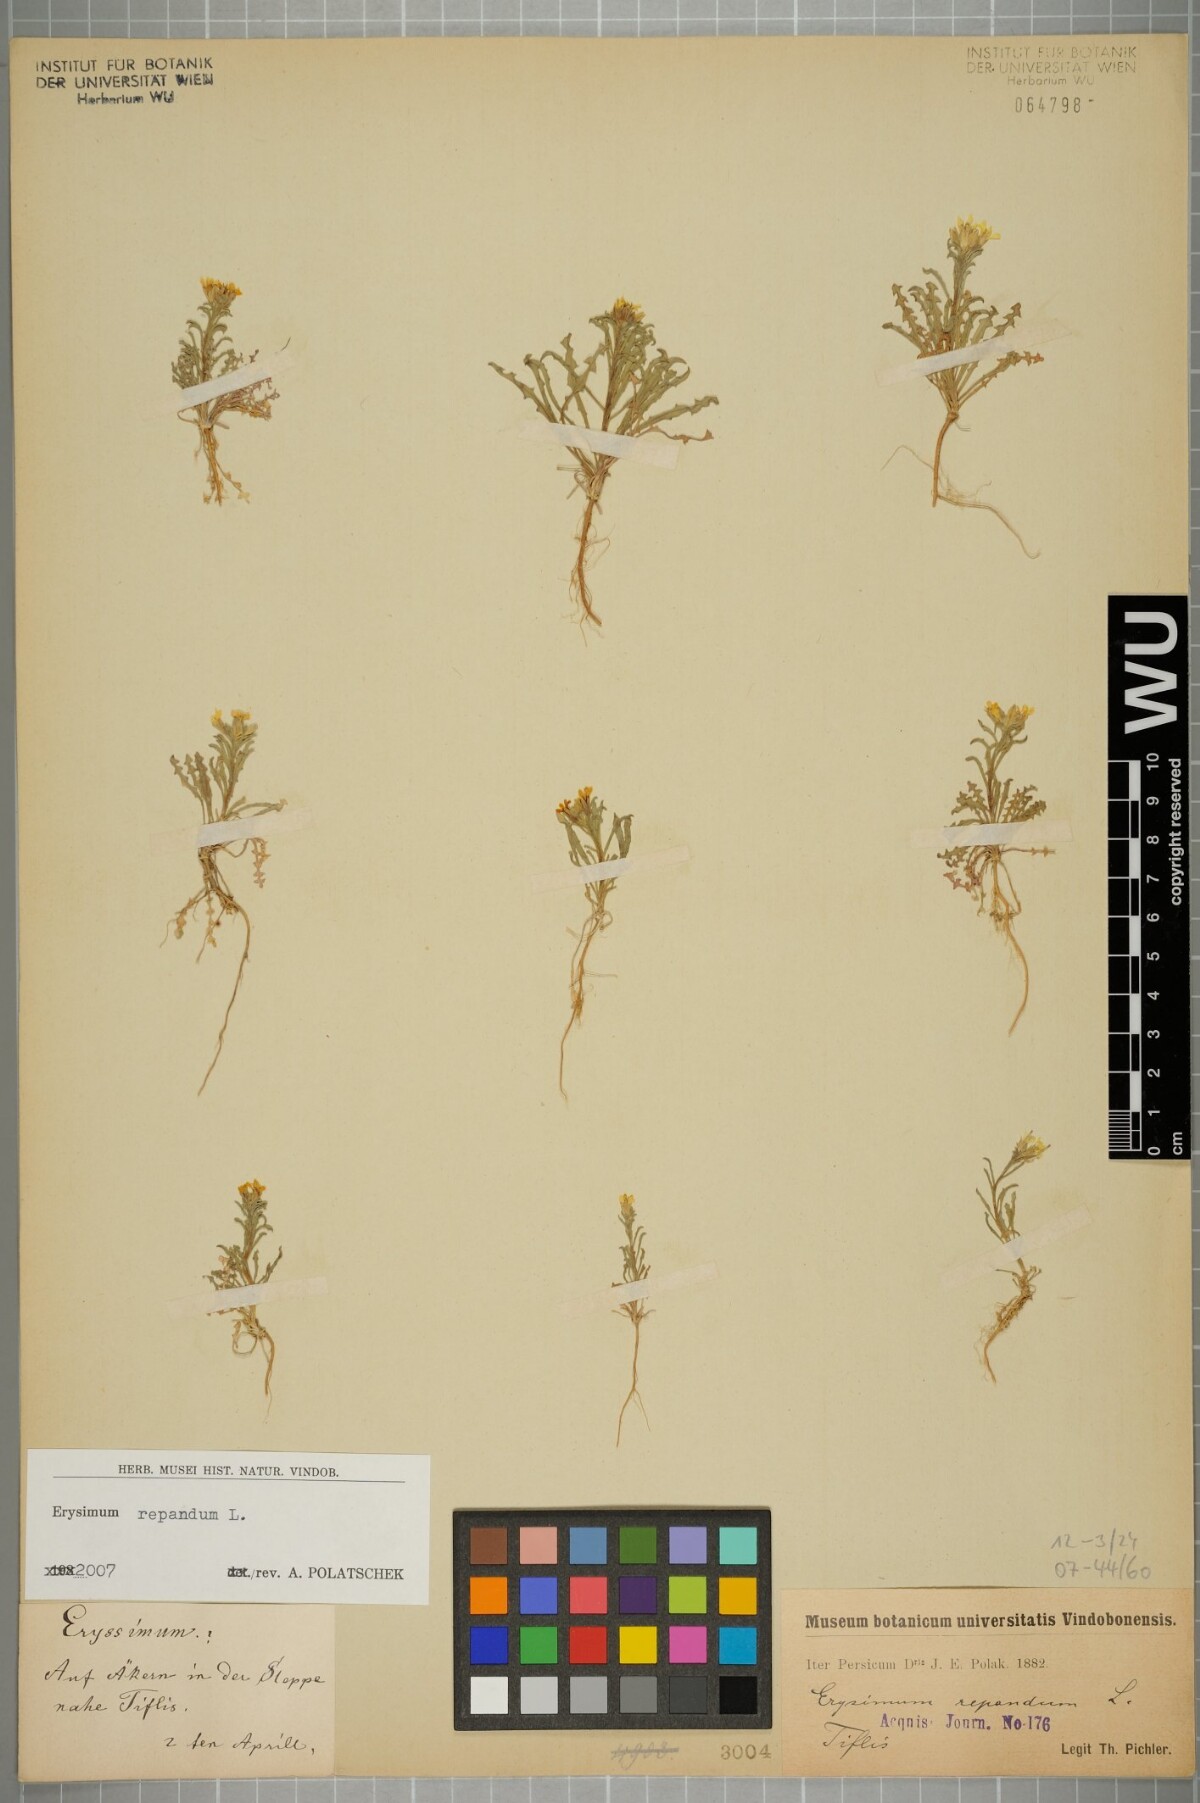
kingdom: Plantae
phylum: Tracheophyta
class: Magnoliopsida
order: Brassicales
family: Brassicaceae
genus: Erysimum
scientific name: Erysimum repandum
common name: Spreading wallflower
